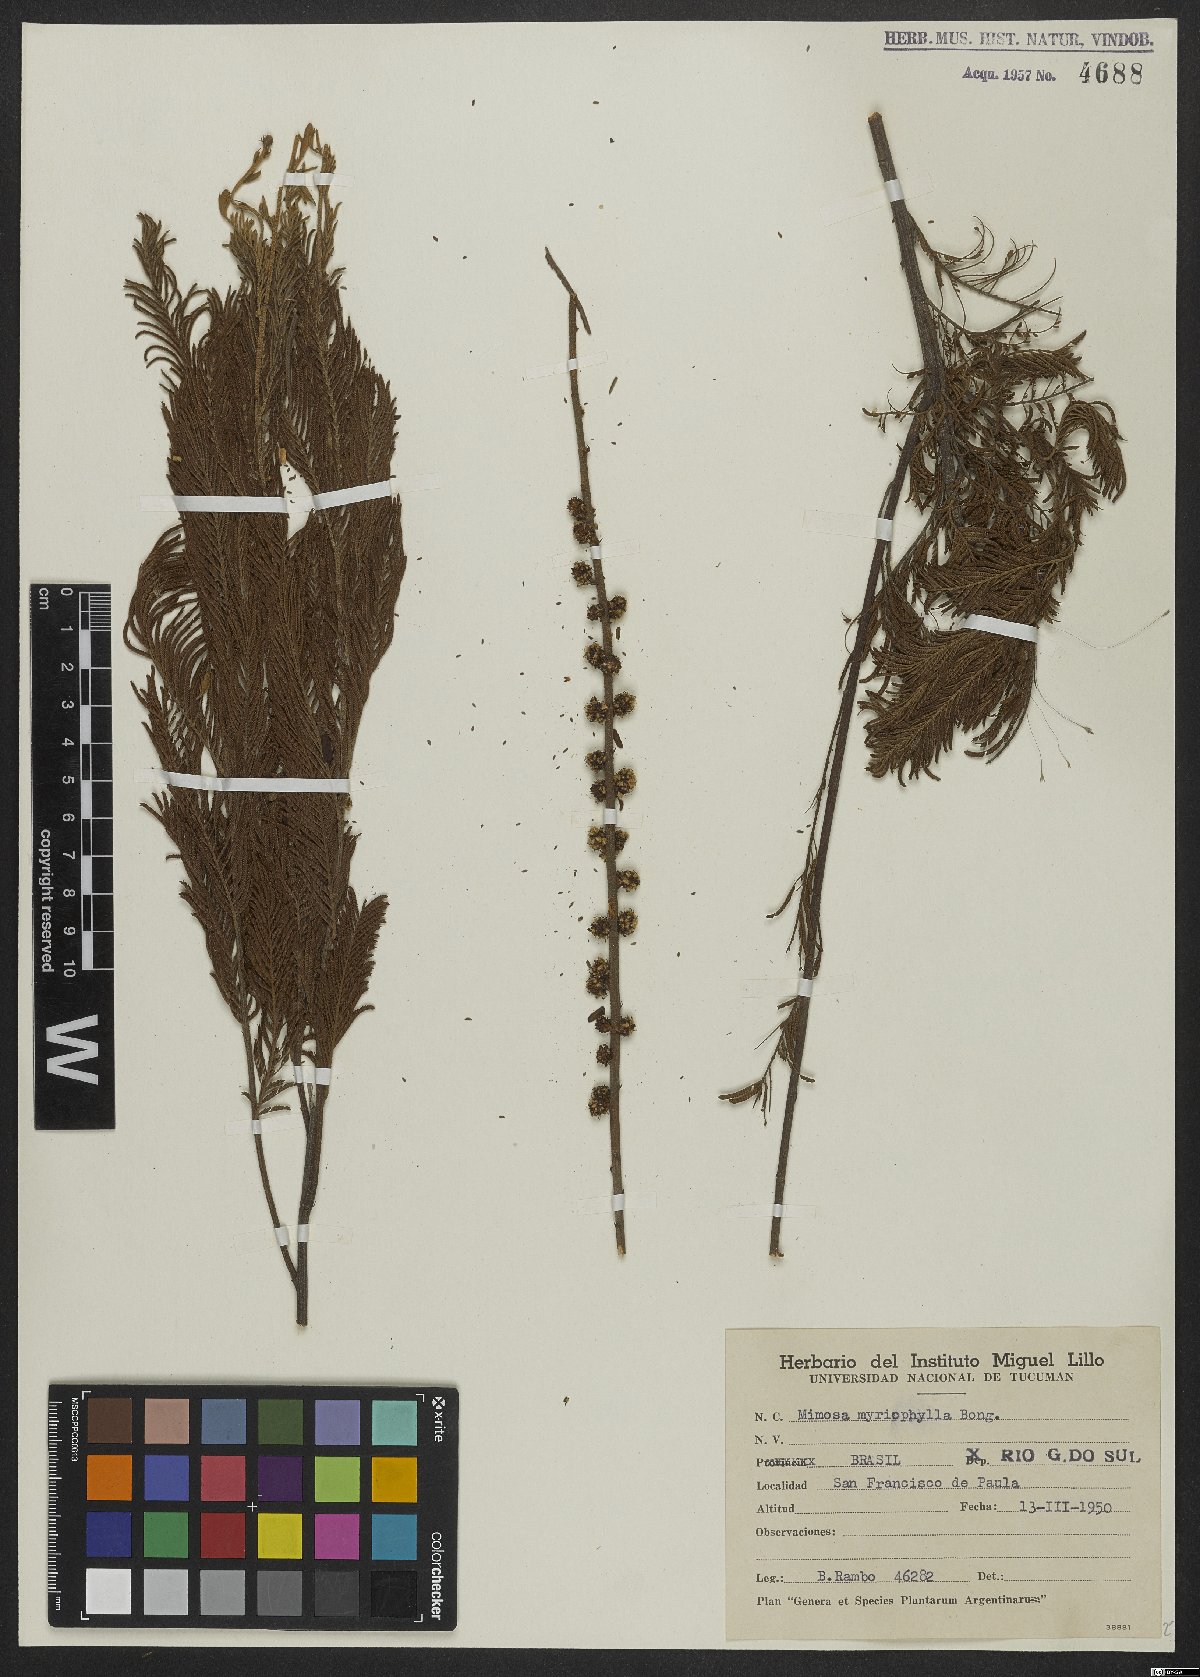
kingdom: Plantae
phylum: Tracheophyta
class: Magnoliopsida
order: Fabales
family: Fabaceae
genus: Mimosa
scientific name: Mimosa myriophylla
